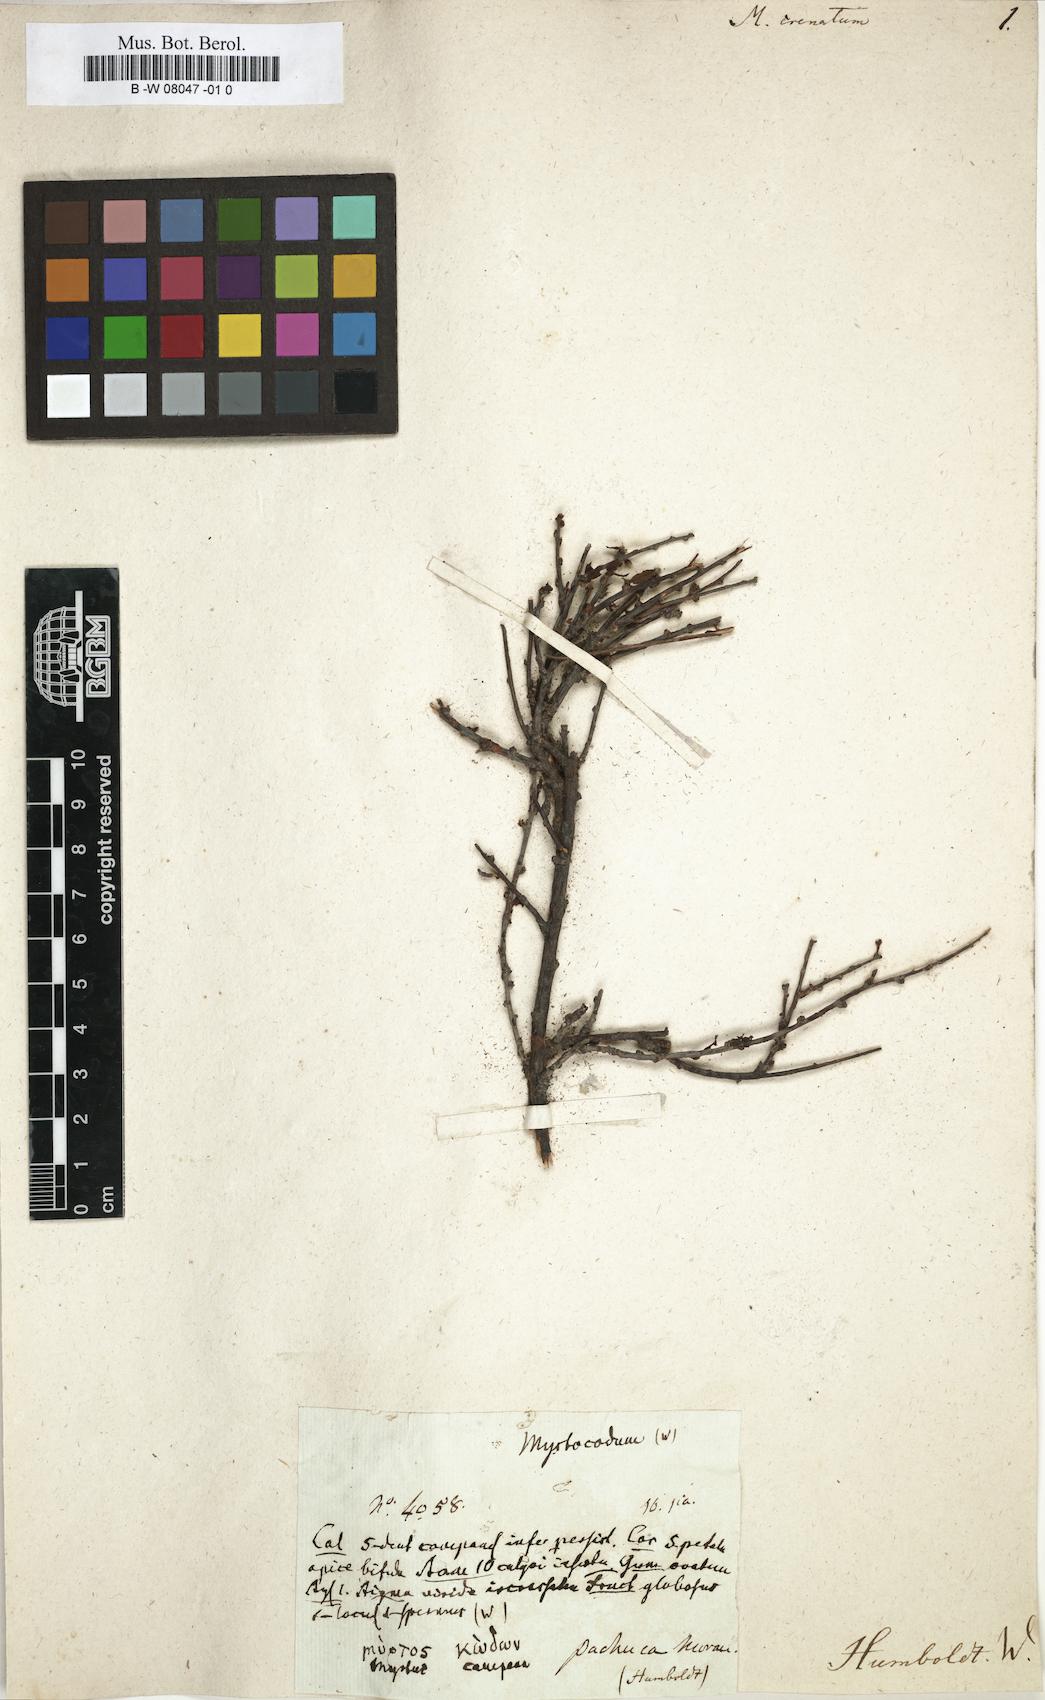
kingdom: Plantae
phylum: Tracheophyta
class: Magnoliopsida
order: Rosales
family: Rosaceae
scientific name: Rosaceae
